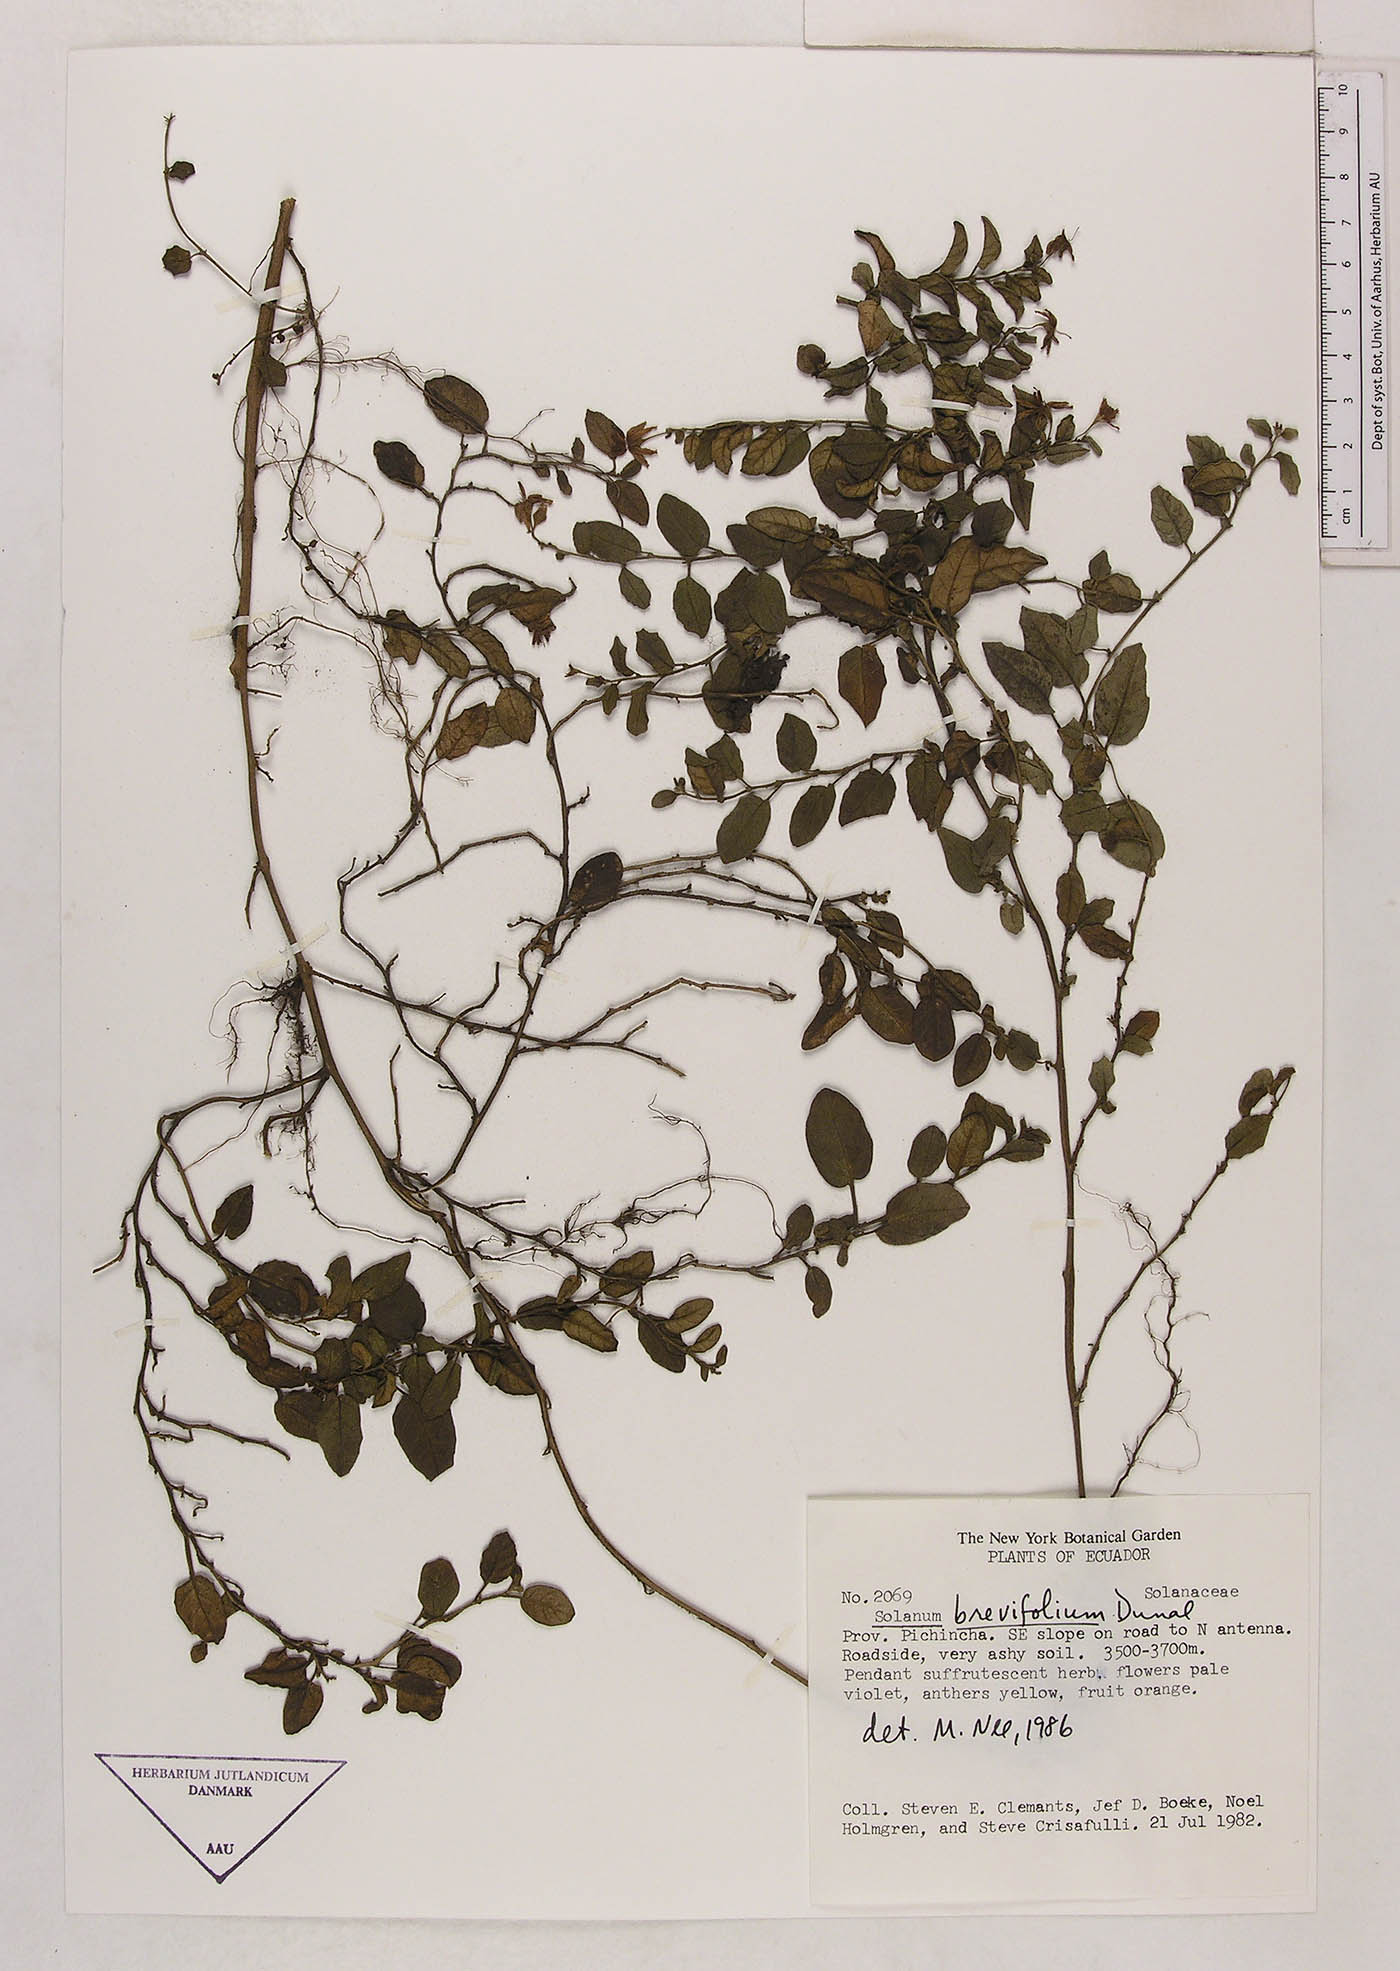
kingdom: Plantae
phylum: Tracheophyta
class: Magnoliopsida
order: Solanales
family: Solanaceae
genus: Solanum
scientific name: Solanum brevifolium
